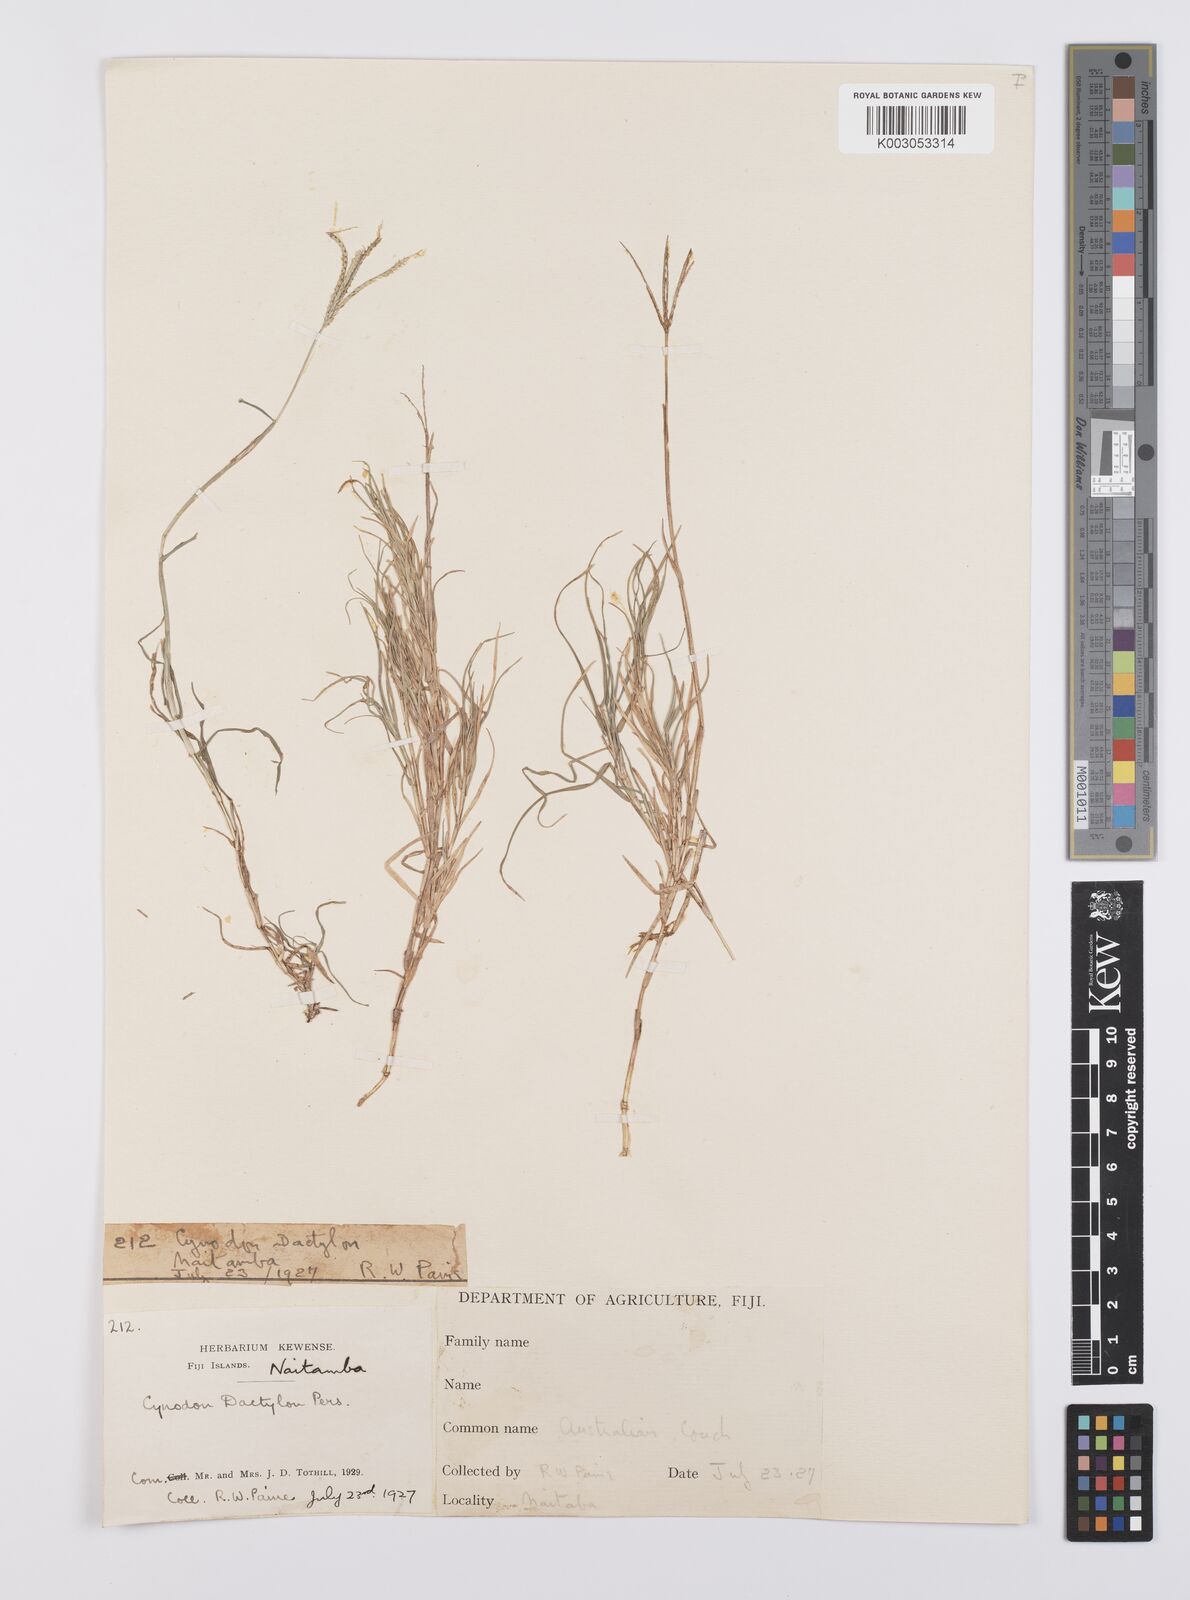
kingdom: Plantae
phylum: Tracheophyta
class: Liliopsida
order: Poales
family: Poaceae
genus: Cynodon
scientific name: Cynodon dactylon
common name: Bermuda grass
